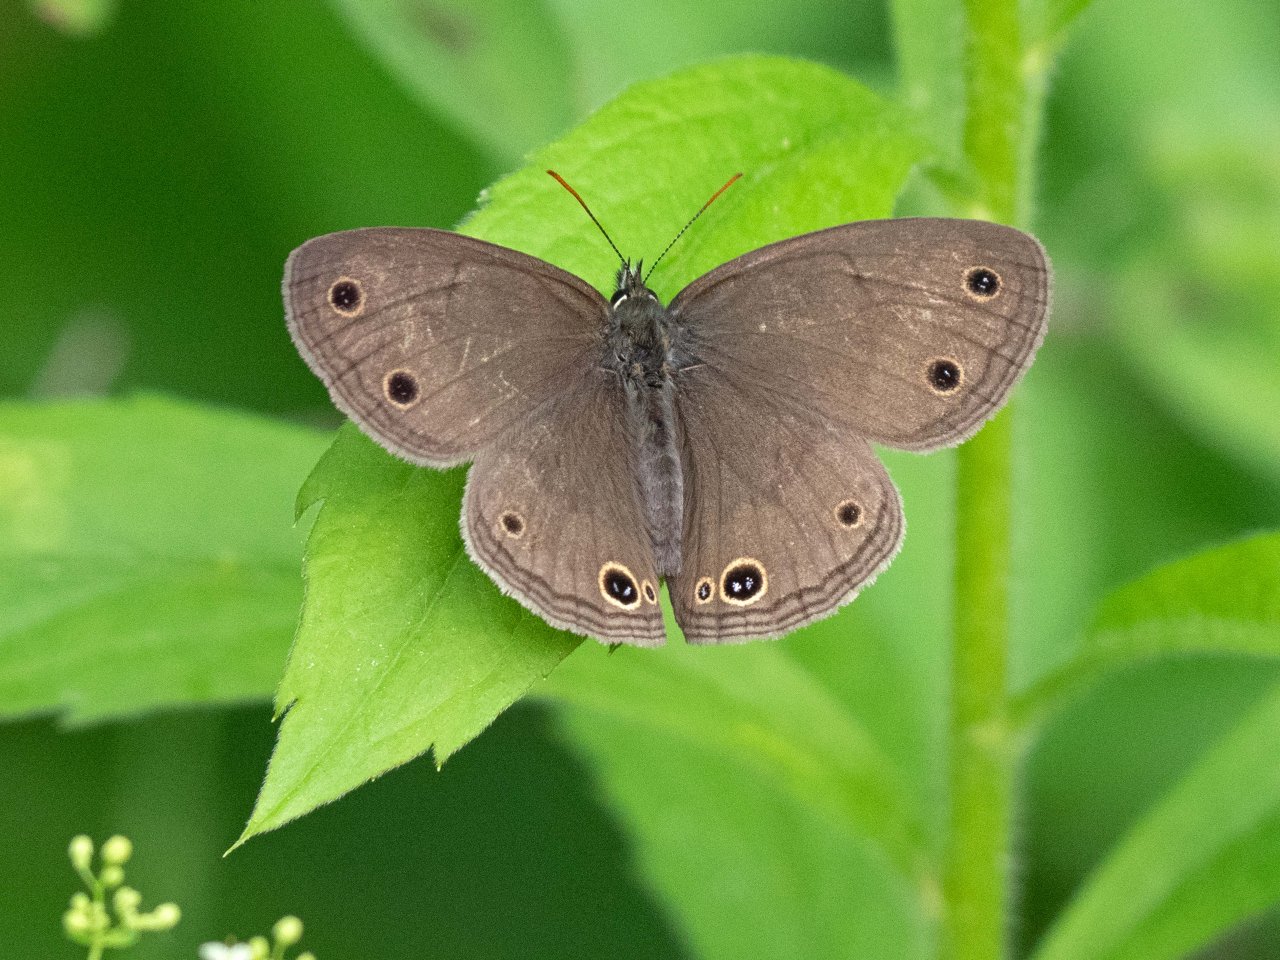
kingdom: Animalia
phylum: Arthropoda
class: Insecta
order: Lepidoptera
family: Nymphalidae
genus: Euptychia
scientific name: Euptychia cymela
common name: Little Wood Satyr
